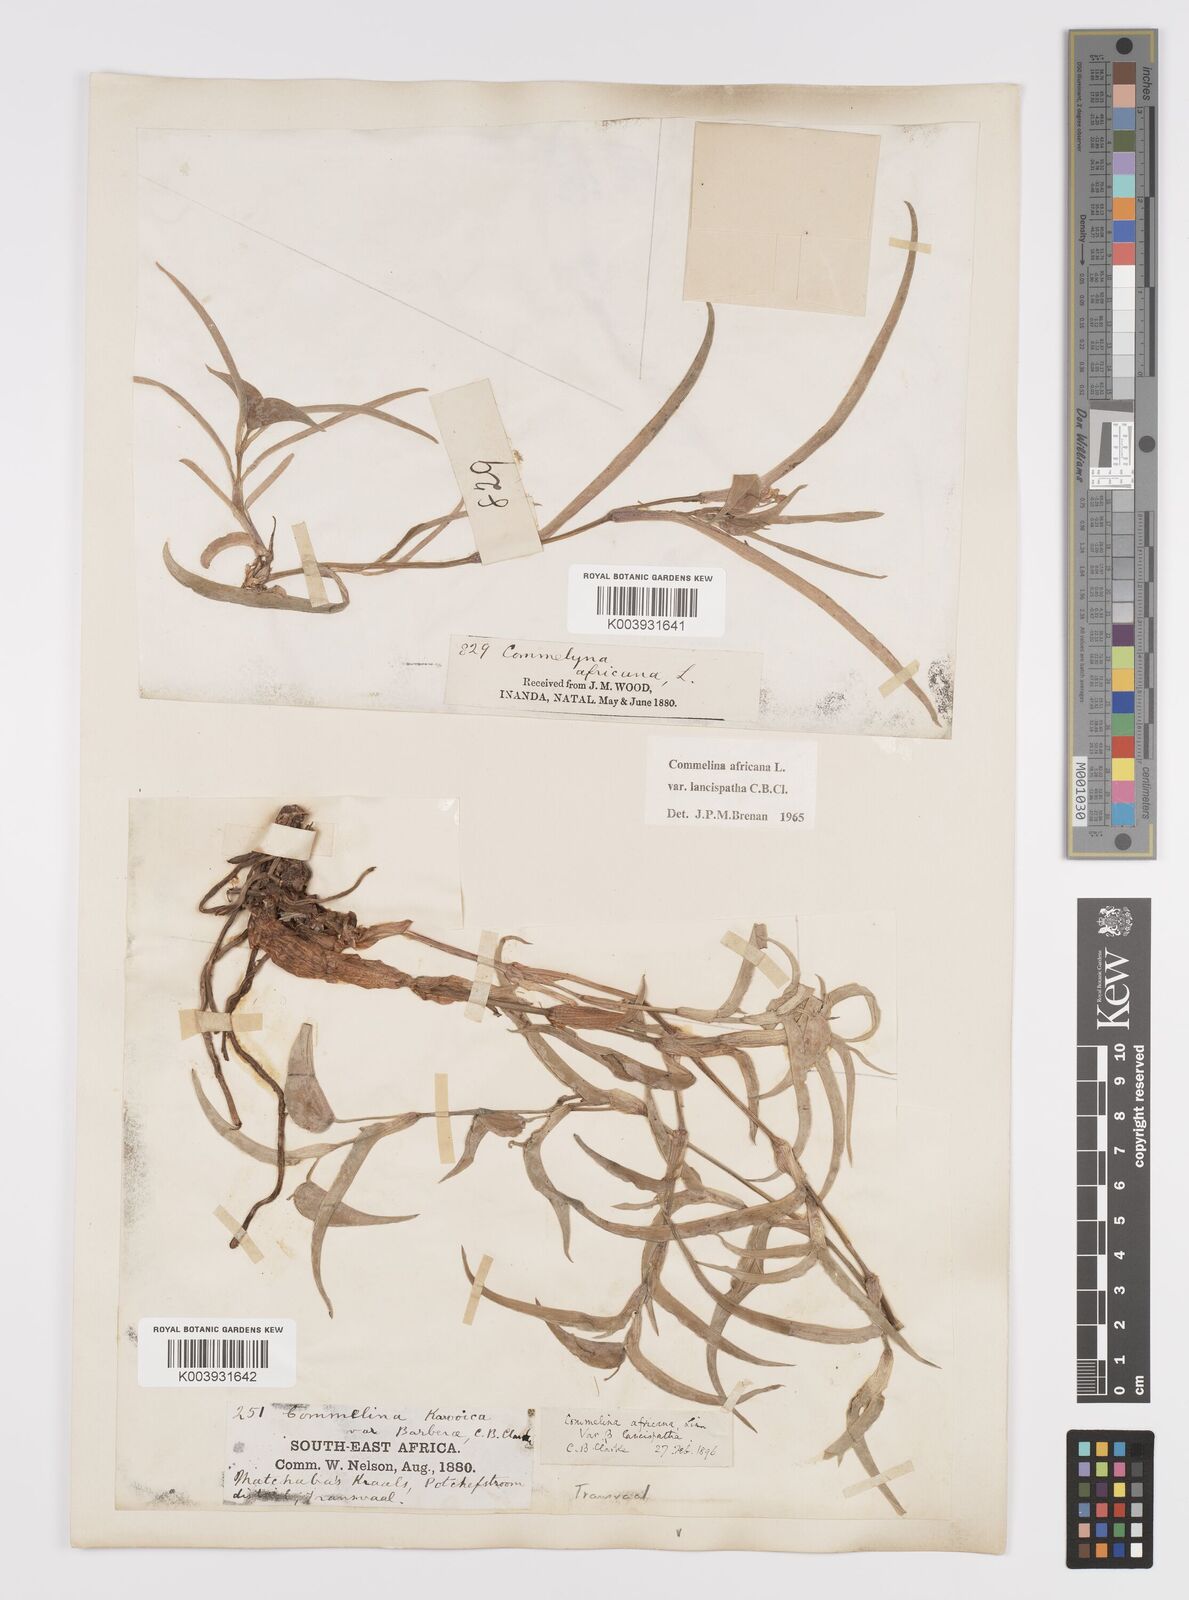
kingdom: Plantae
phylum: Tracheophyta
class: Liliopsida
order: Commelinales
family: Commelinaceae
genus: Commelina
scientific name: Commelina africana
